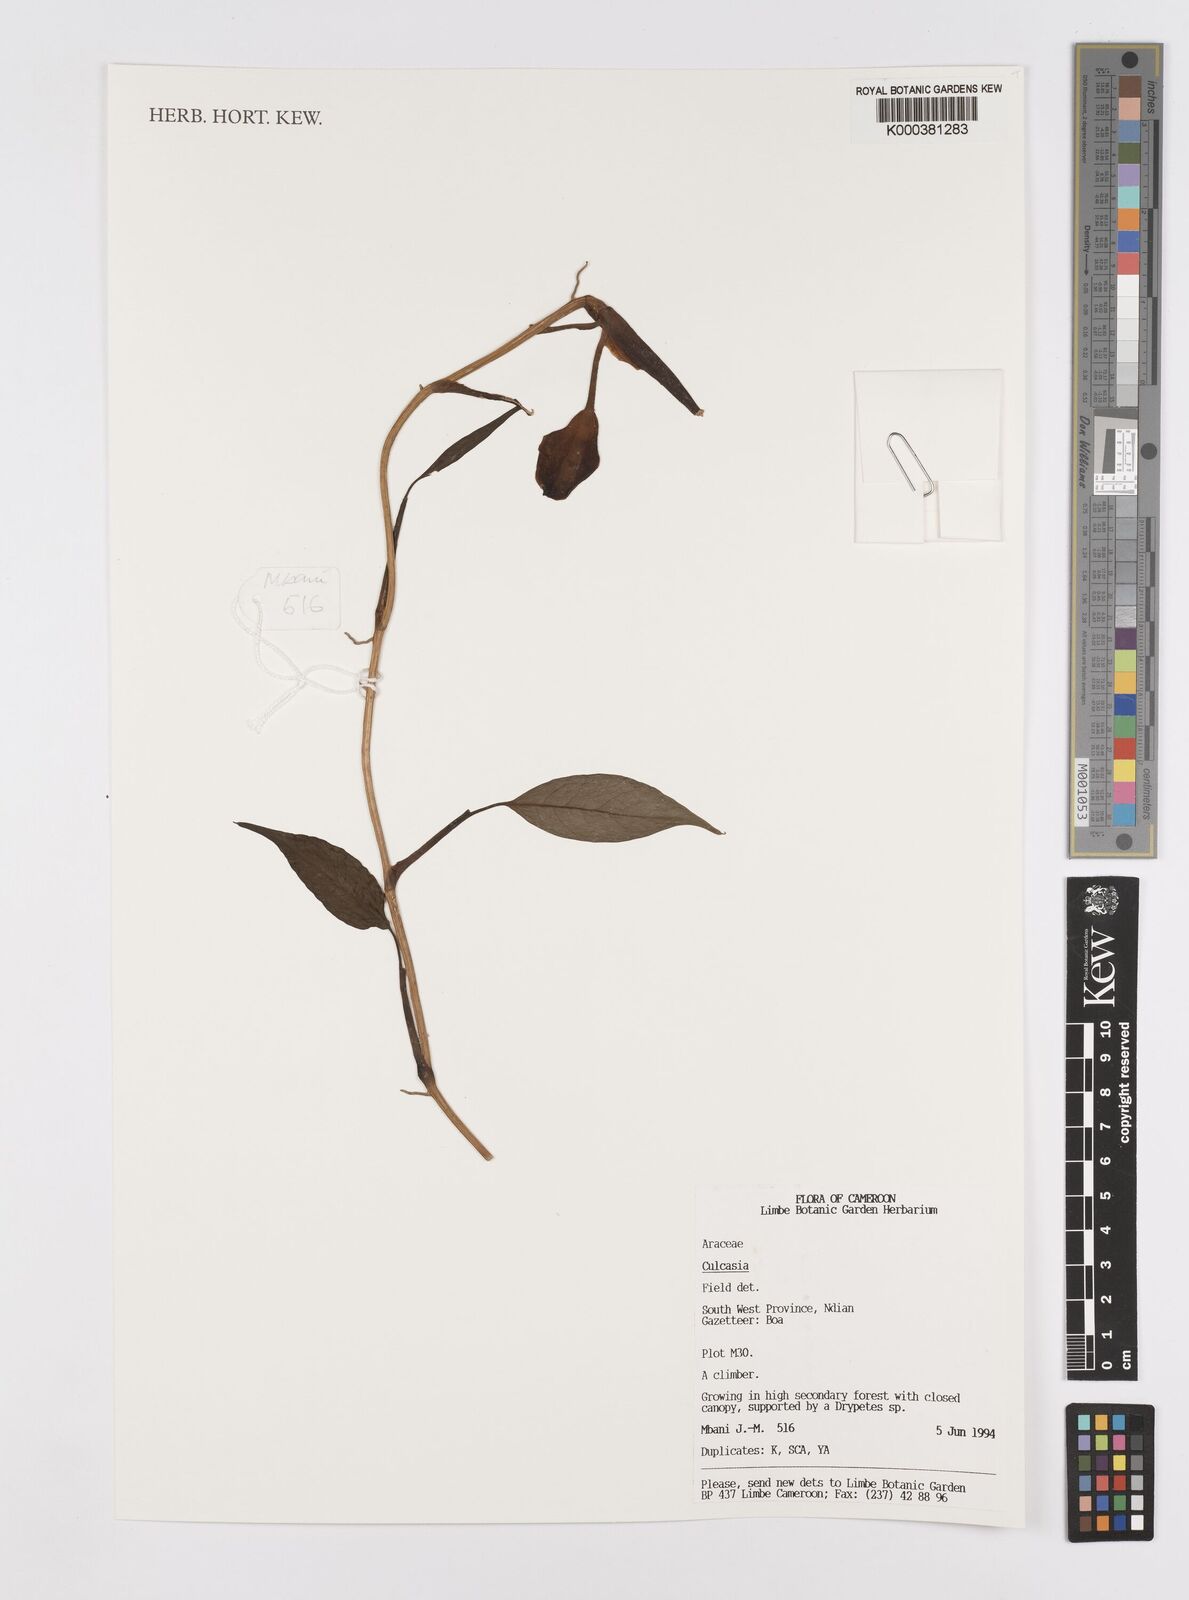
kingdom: Plantae
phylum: Tracheophyta
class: Liliopsida
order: Alismatales
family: Araceae
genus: Culcasia
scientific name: Culcasia
